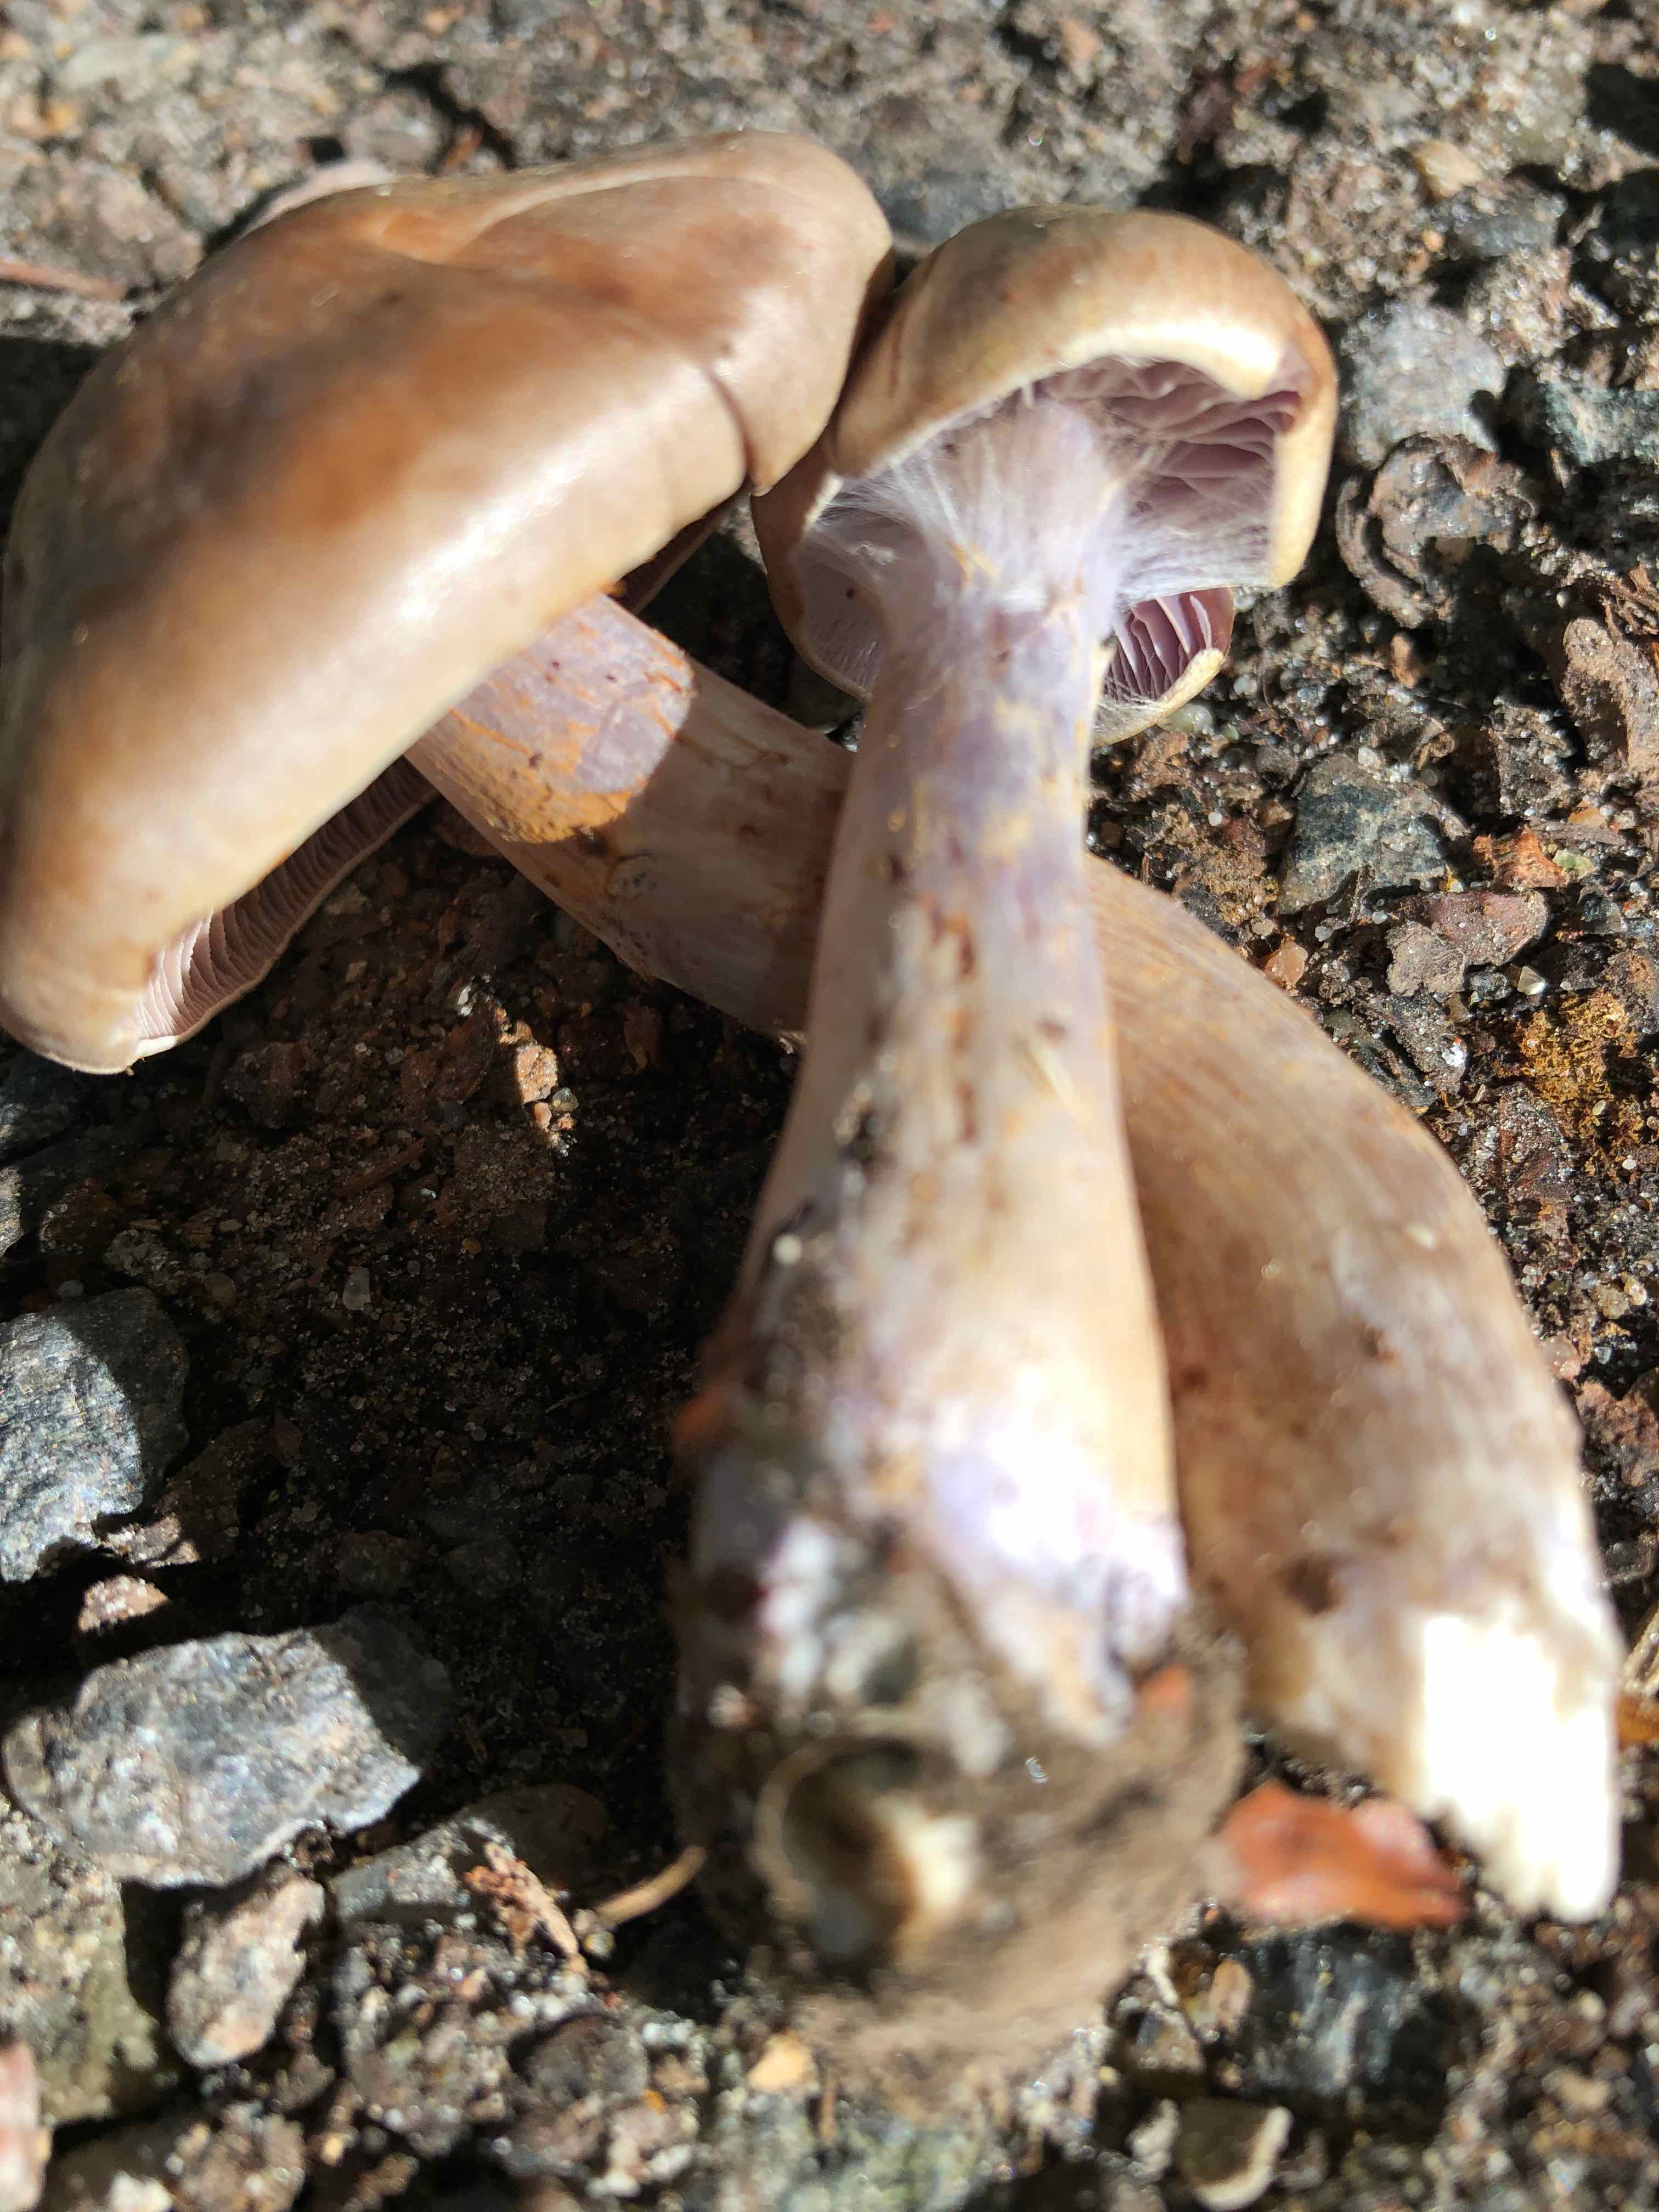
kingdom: Fungi
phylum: Basidiomycota
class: Agaricomycetes
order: Agaricales
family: Cortinariaceae
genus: Cortinarius
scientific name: Cortinarius
